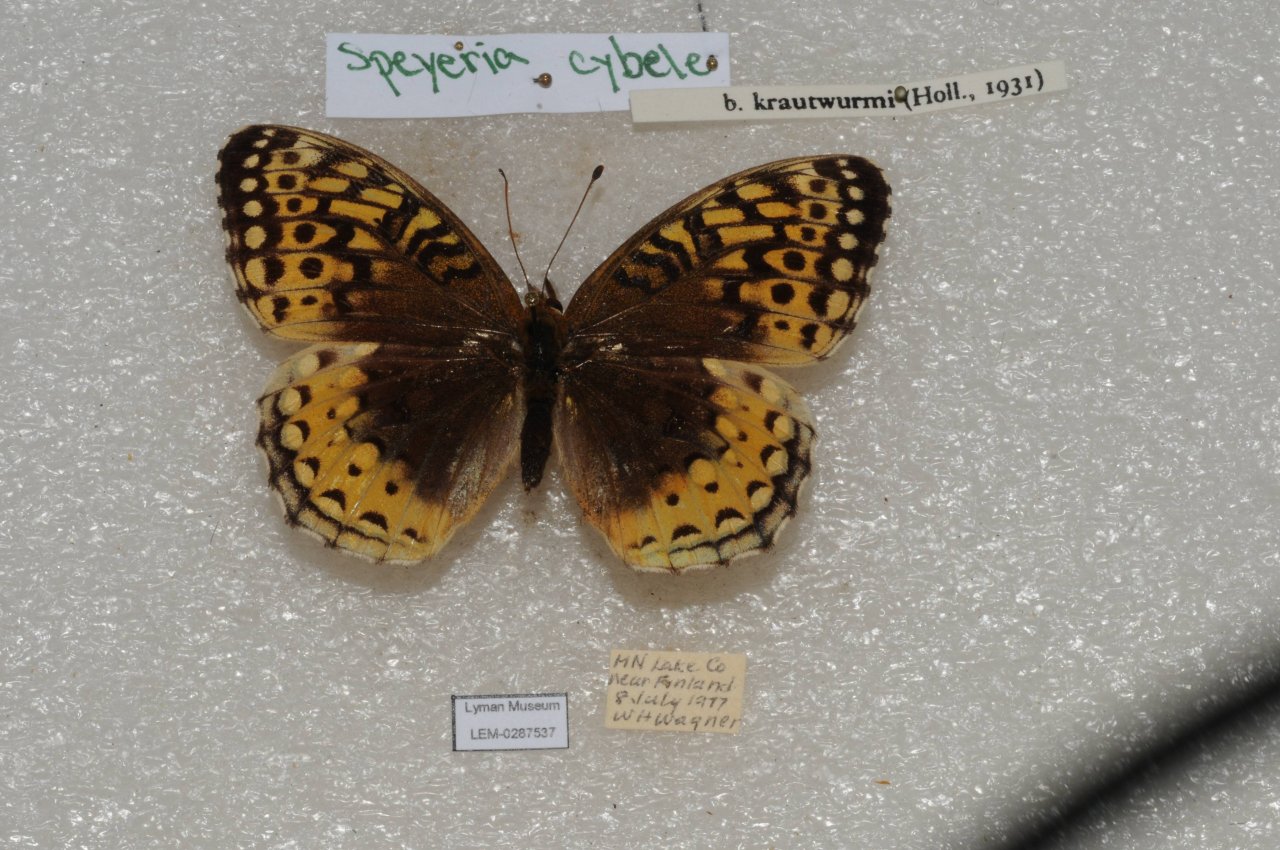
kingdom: Animalia
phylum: Arthropoda
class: Insecta
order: Lepidoptera
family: Nymphalidae
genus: Speyeria
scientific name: Speyeria cybele
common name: Great Spangled Fritillary
